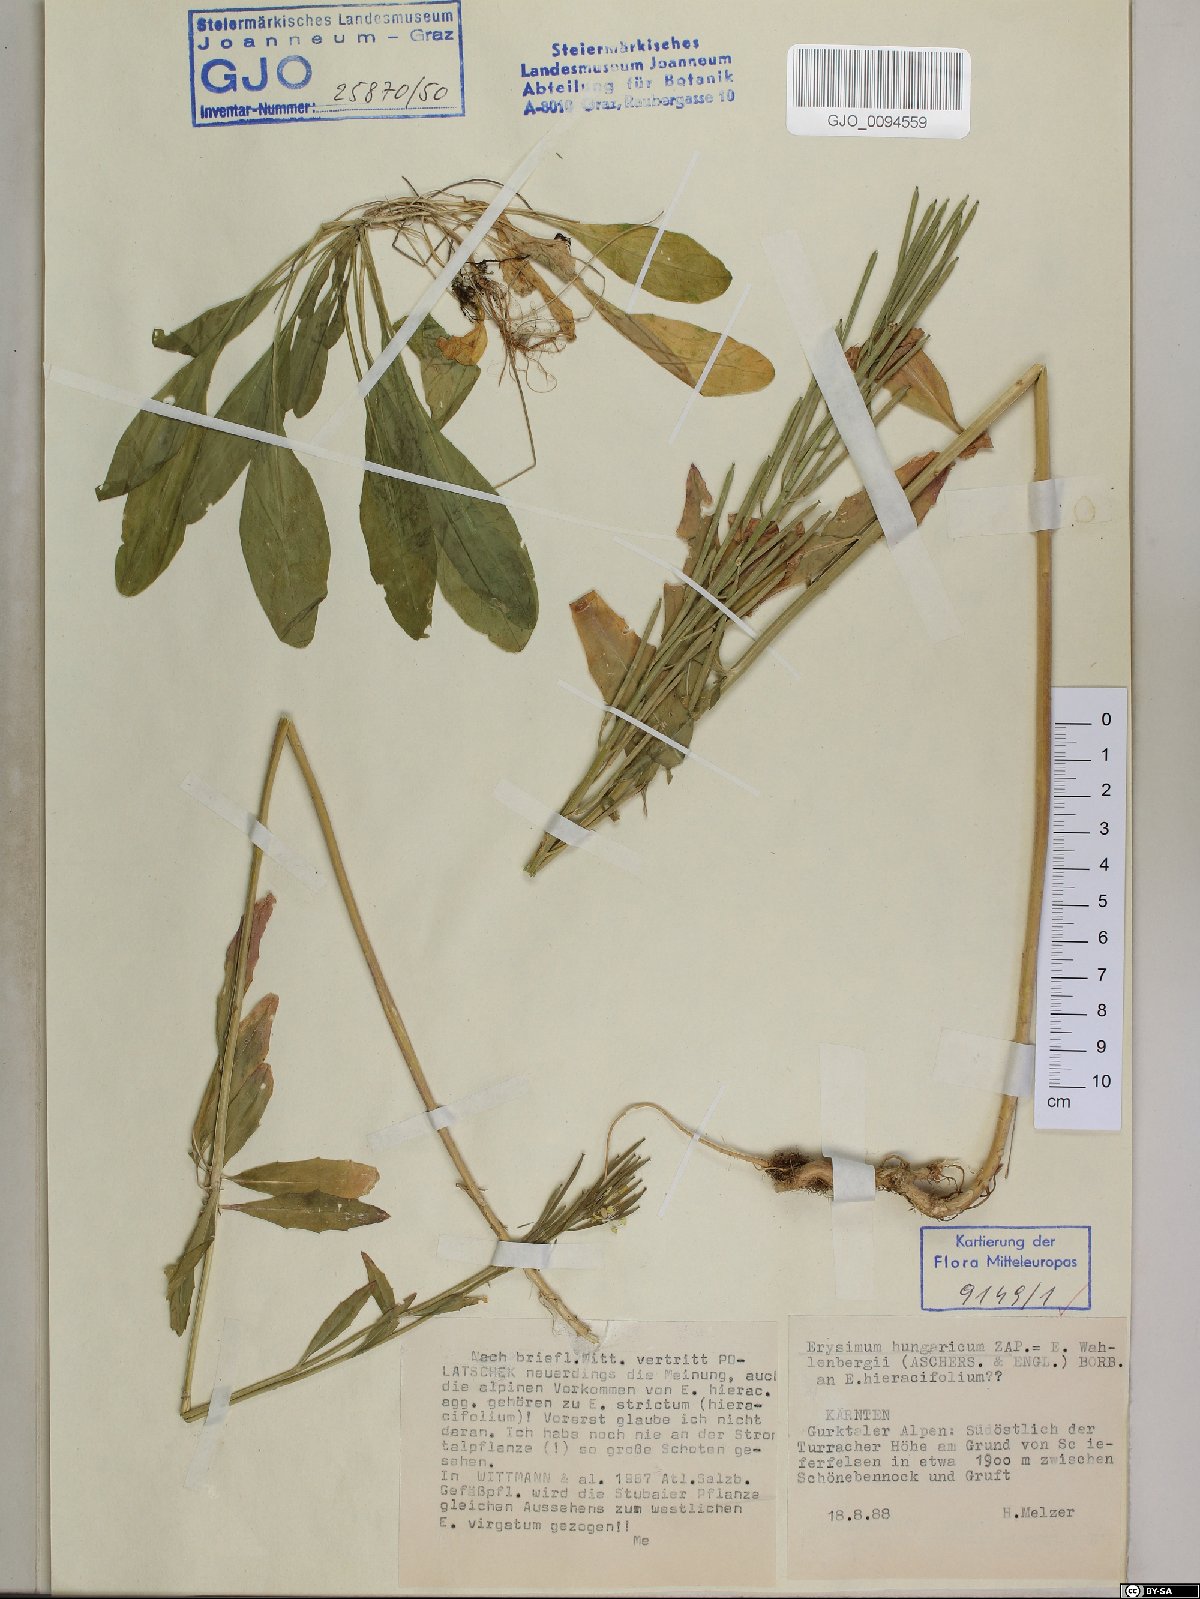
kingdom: Plantae
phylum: Tracheophyta
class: Magnoliopsida
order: Brassicales
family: Brassicaceae
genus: Erysimum
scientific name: Erysimum hungaricum
